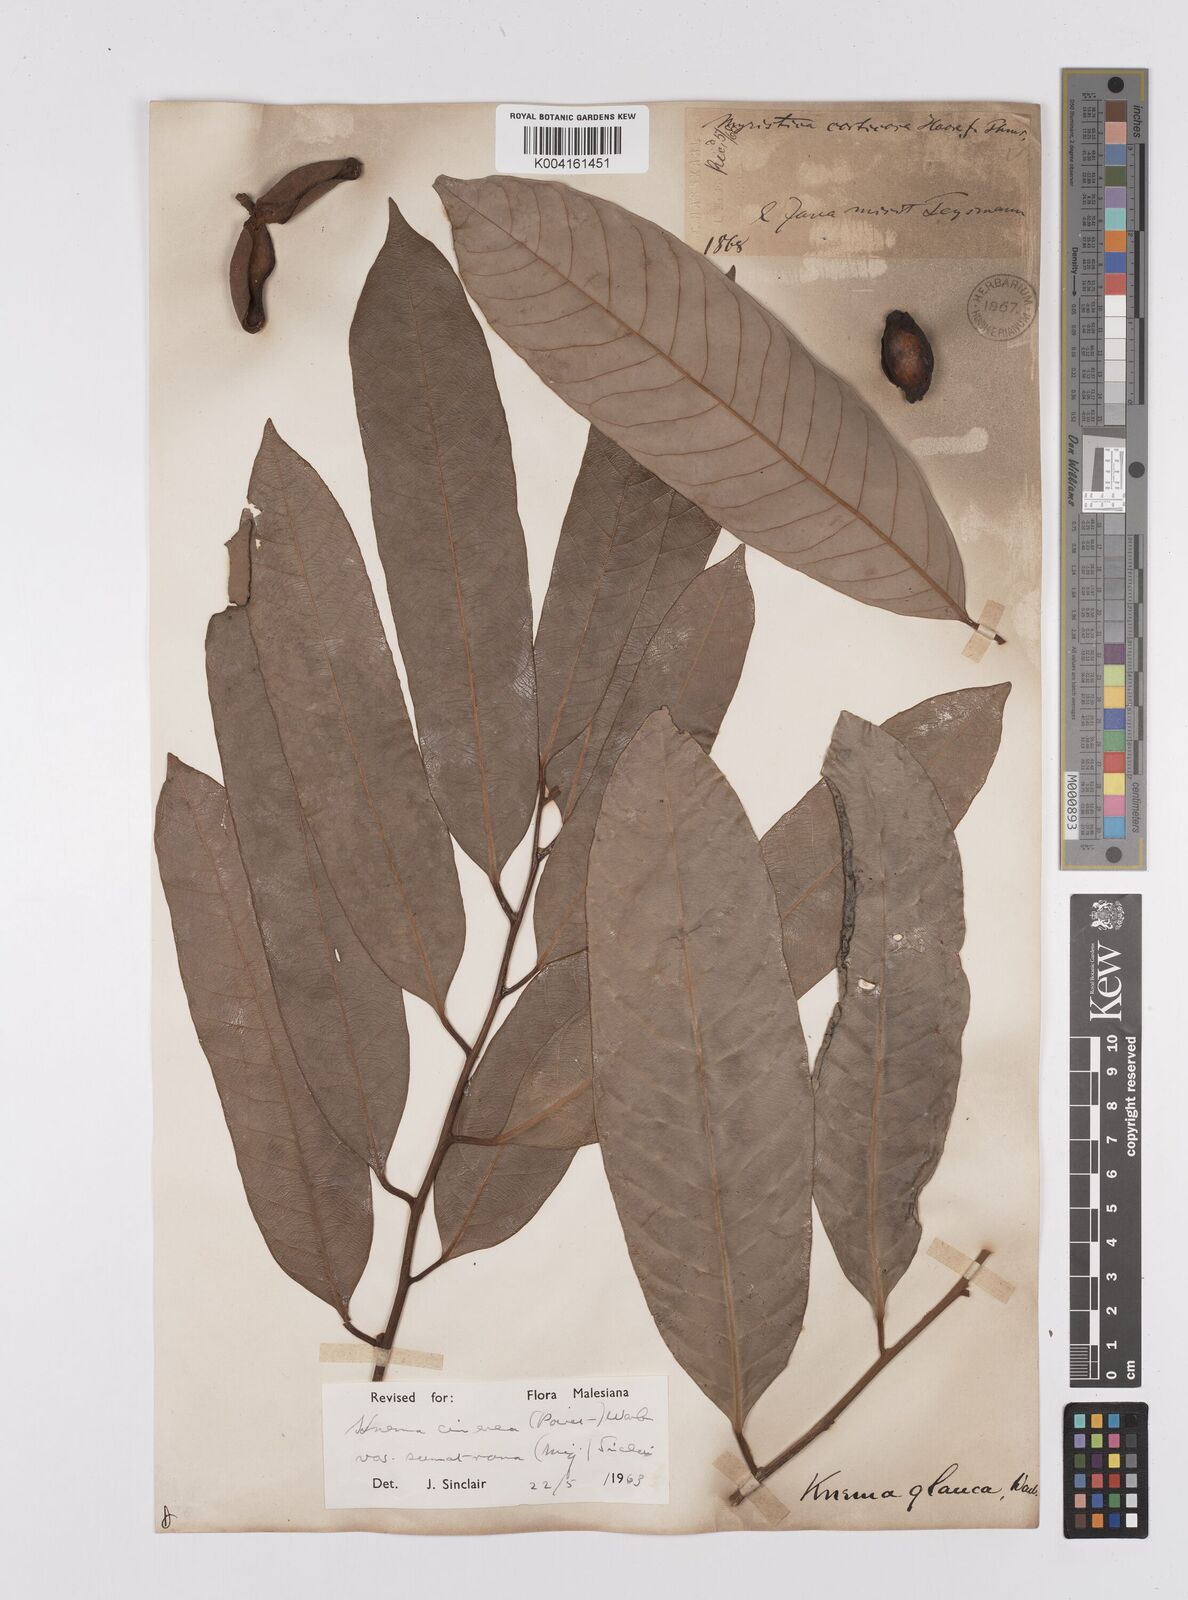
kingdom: Plantae
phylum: Tracheophyta
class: Magnoliopsida
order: Magnoliales
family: Myristicaceae
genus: Knema
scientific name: Knema
